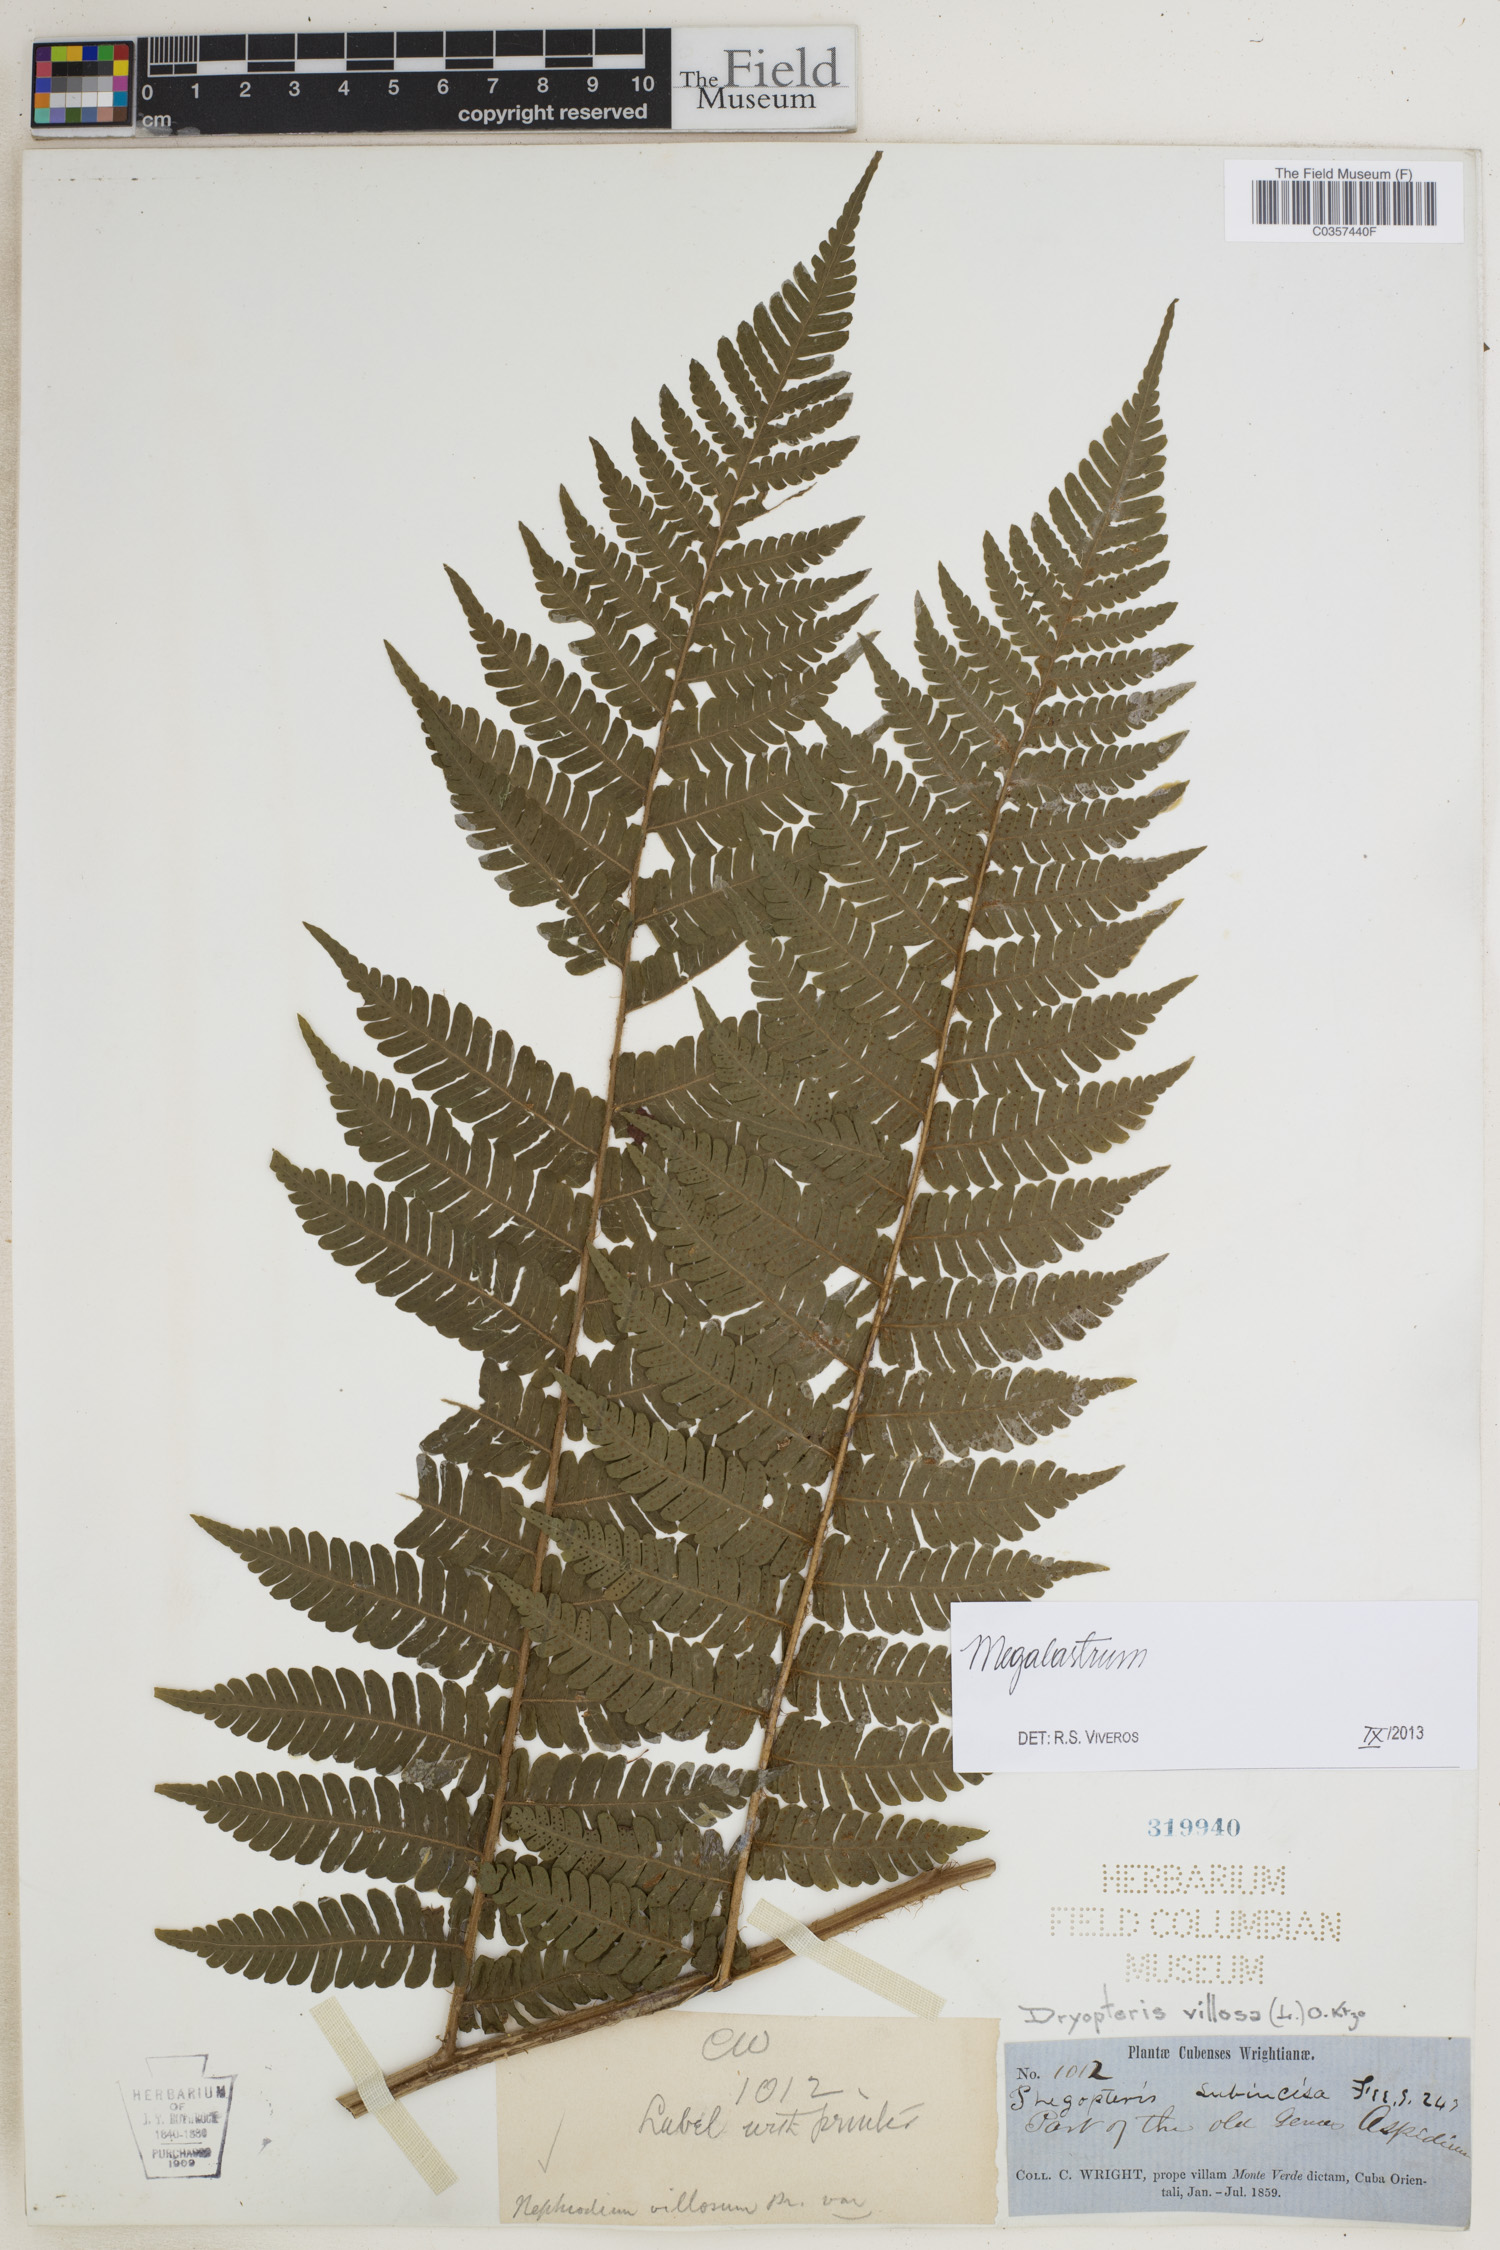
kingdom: Plantae
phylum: Tracheophyta
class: Polypodiopsida
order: Polypodiales
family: Dryopteridaceae
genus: Megalastrum
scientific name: Megalastrum
